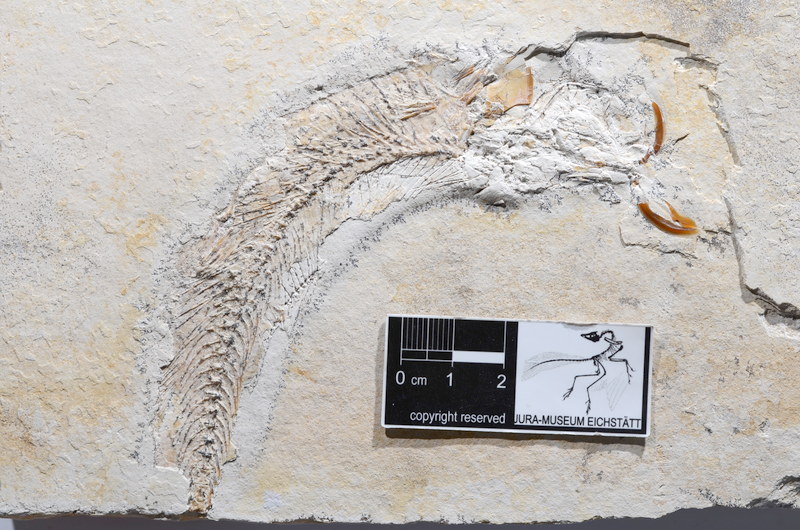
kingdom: Animalia
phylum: Chordata
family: Ascalaboidae
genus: Tharsis
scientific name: Tharsis dubius
